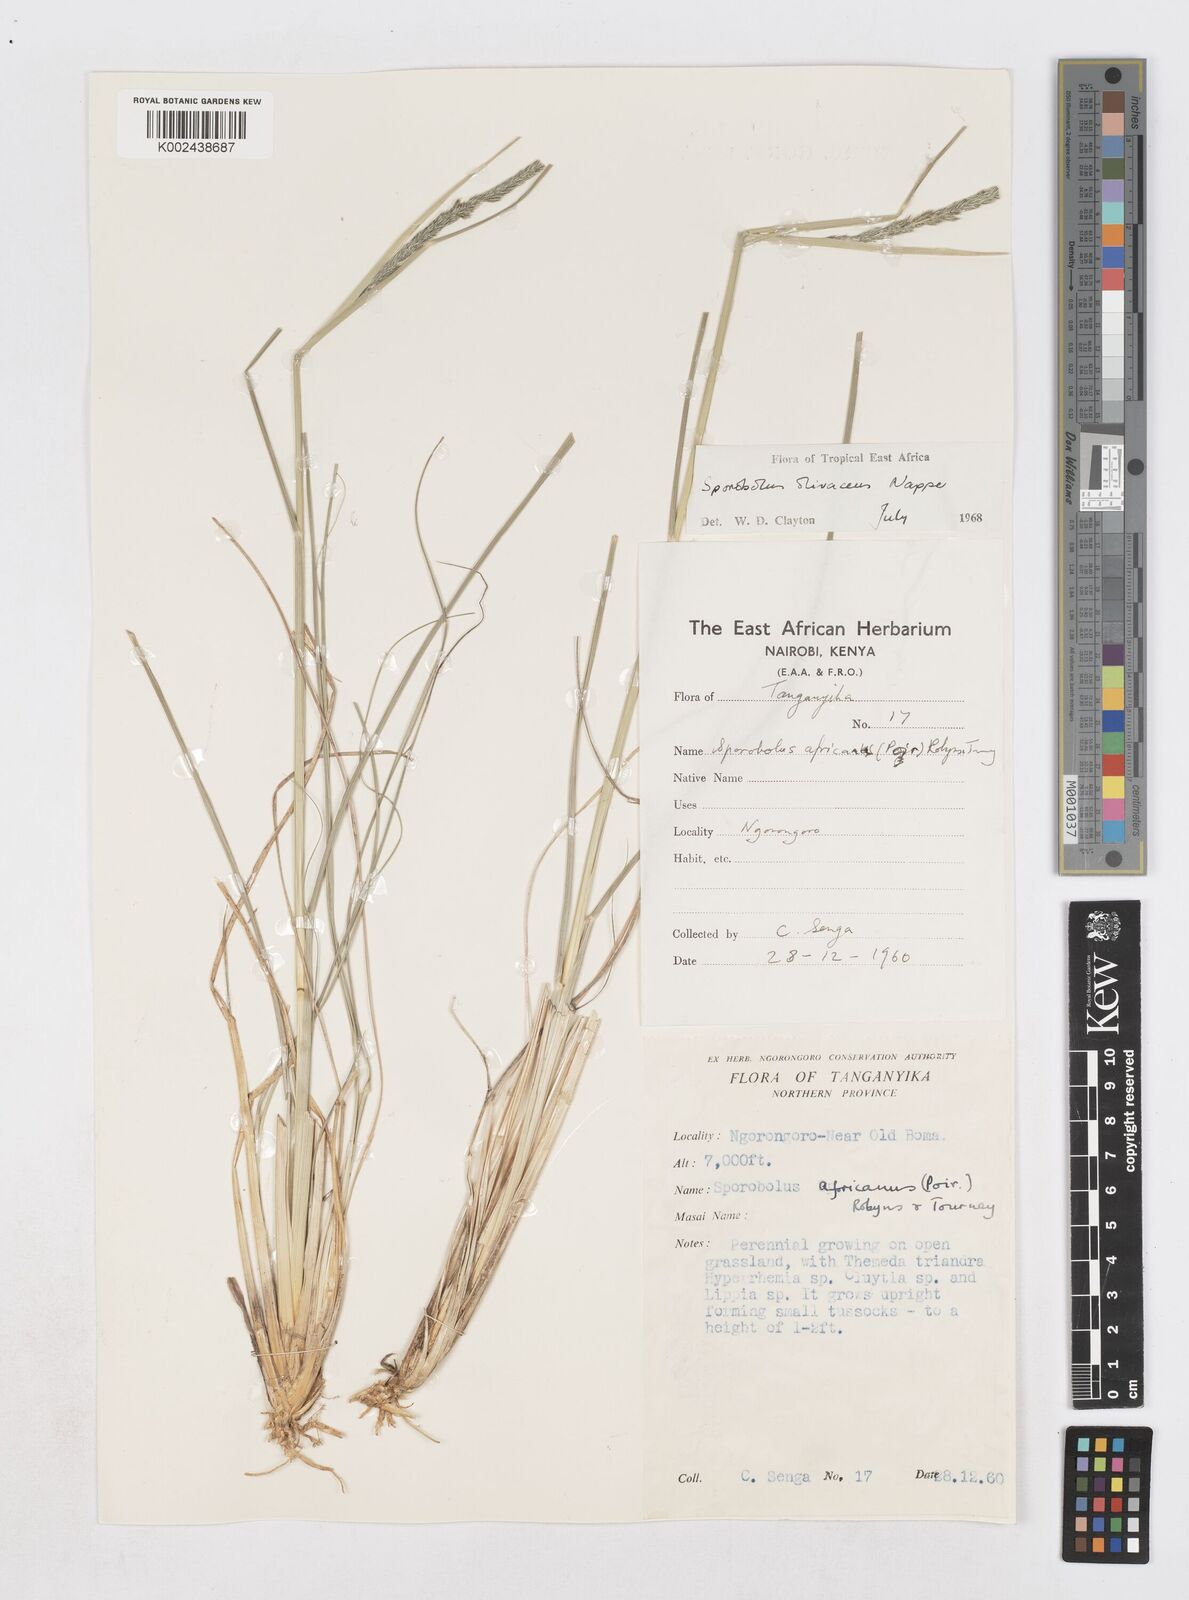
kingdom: Plantae
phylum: Tracheophyta
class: Liliopsida
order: Poales
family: Poaceae
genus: Sporobolus
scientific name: Sporobolus olivaceus
